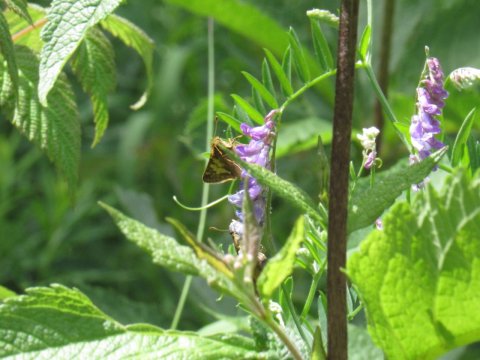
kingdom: Animalia
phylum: Arthropoda
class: Insecta
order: Lepidoptera
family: Hesperiidae
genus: Polites
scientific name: Polites coras
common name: Peck's Skipper
